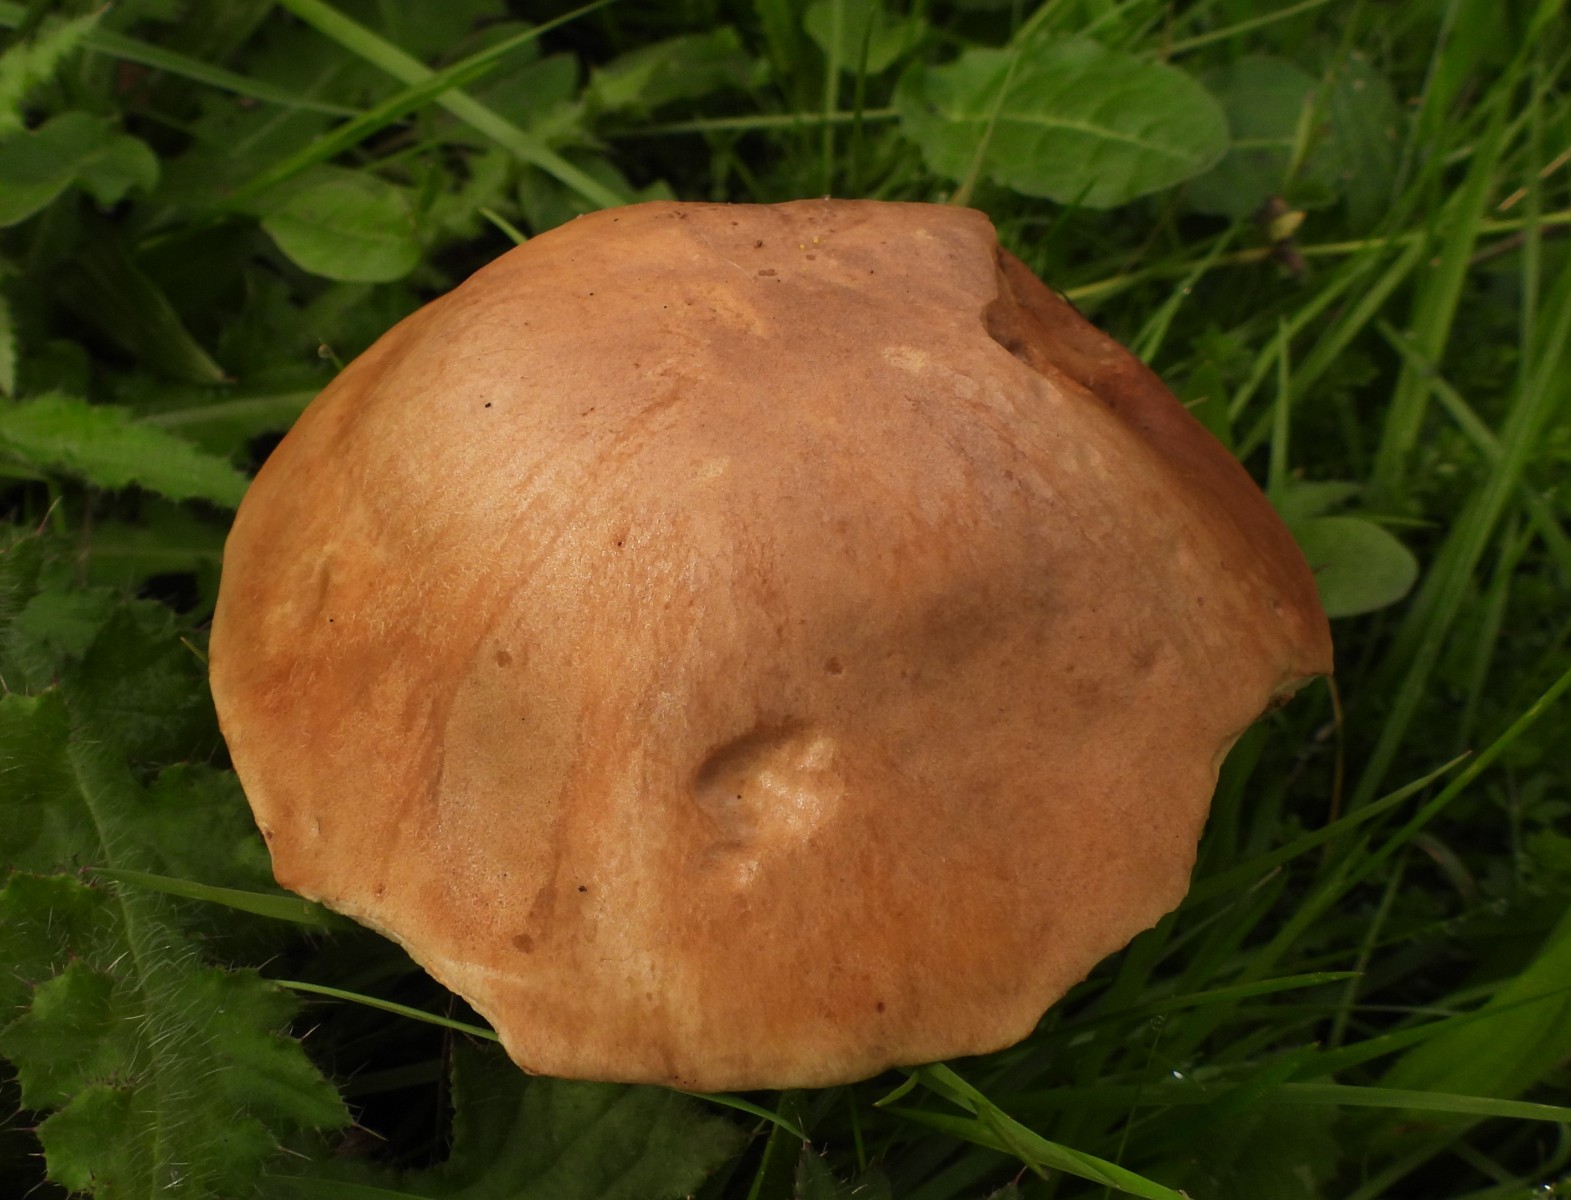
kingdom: Fungi
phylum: Basidiomycota
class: Agaricomycetes
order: Boletales
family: Boletaceae
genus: Leccinum
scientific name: Leccinum scabrum
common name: brun skælrørhat
